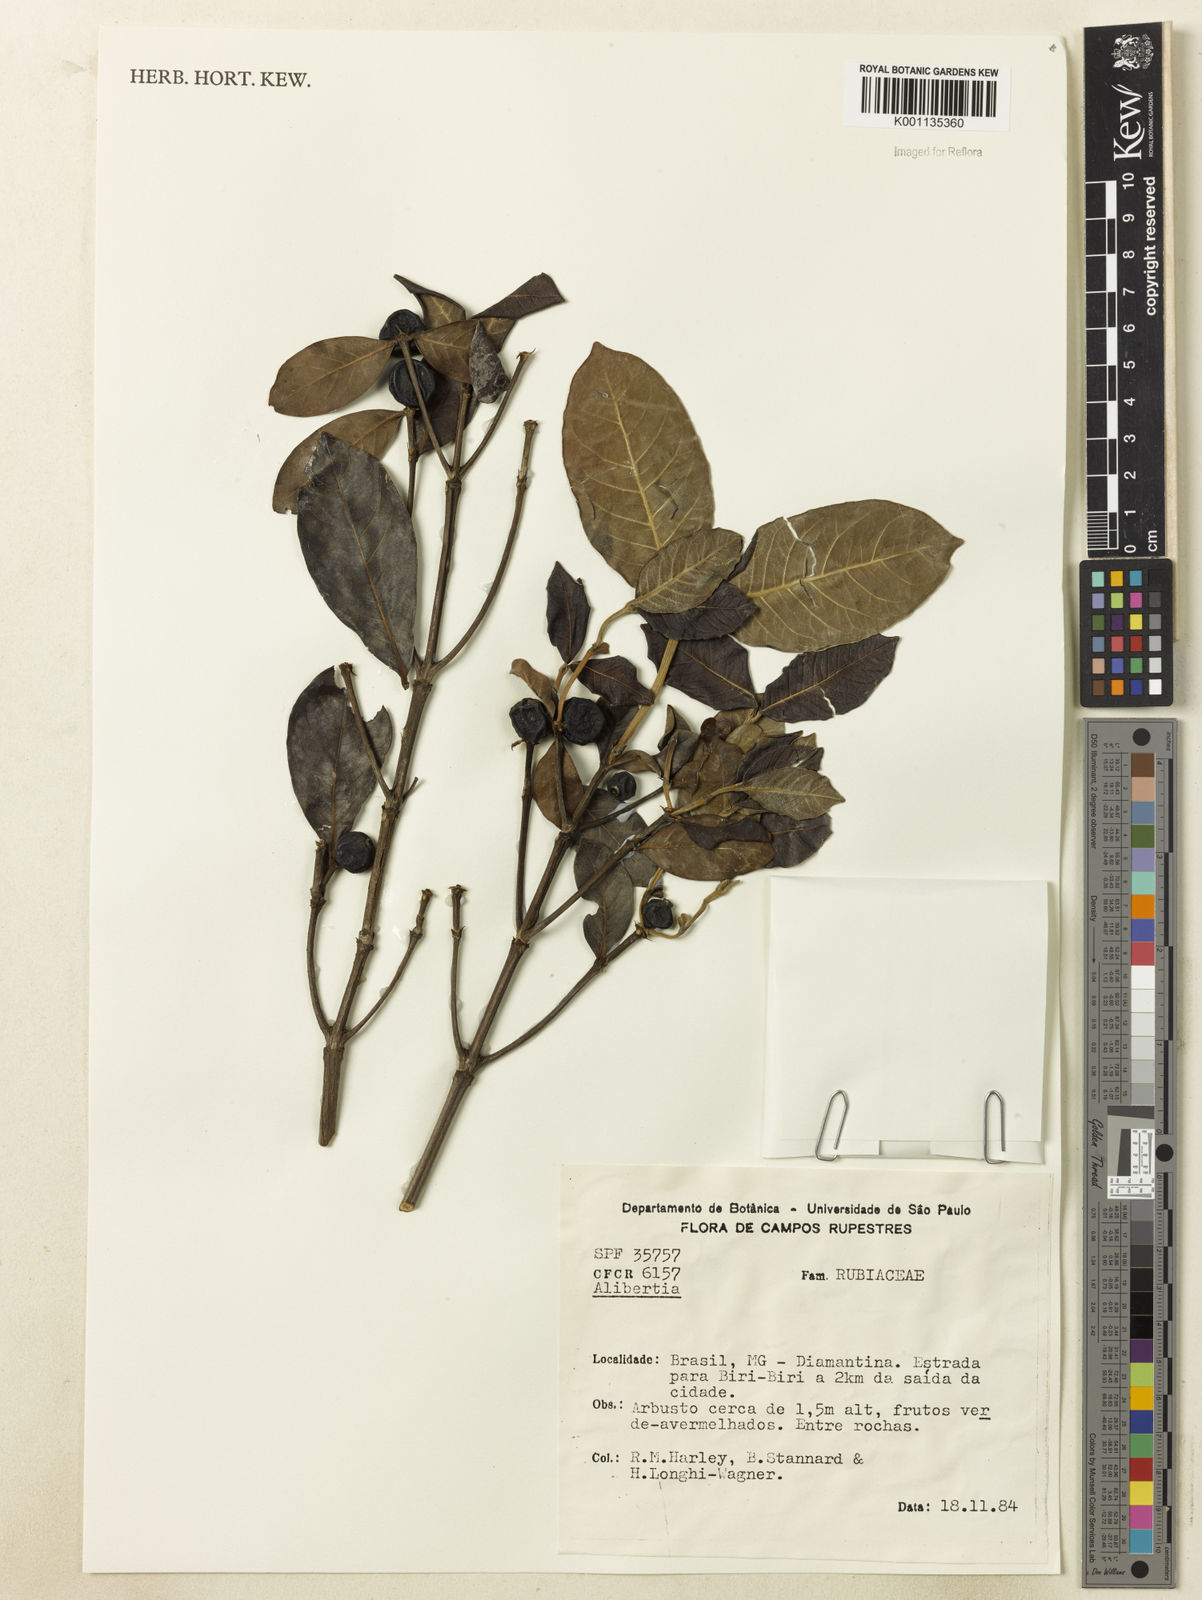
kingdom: Plantae
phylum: Tracheophyta
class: Magnoliopsida
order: Gentianales
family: Rubiaceae
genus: Cordiera
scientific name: Cordiera elliptica
